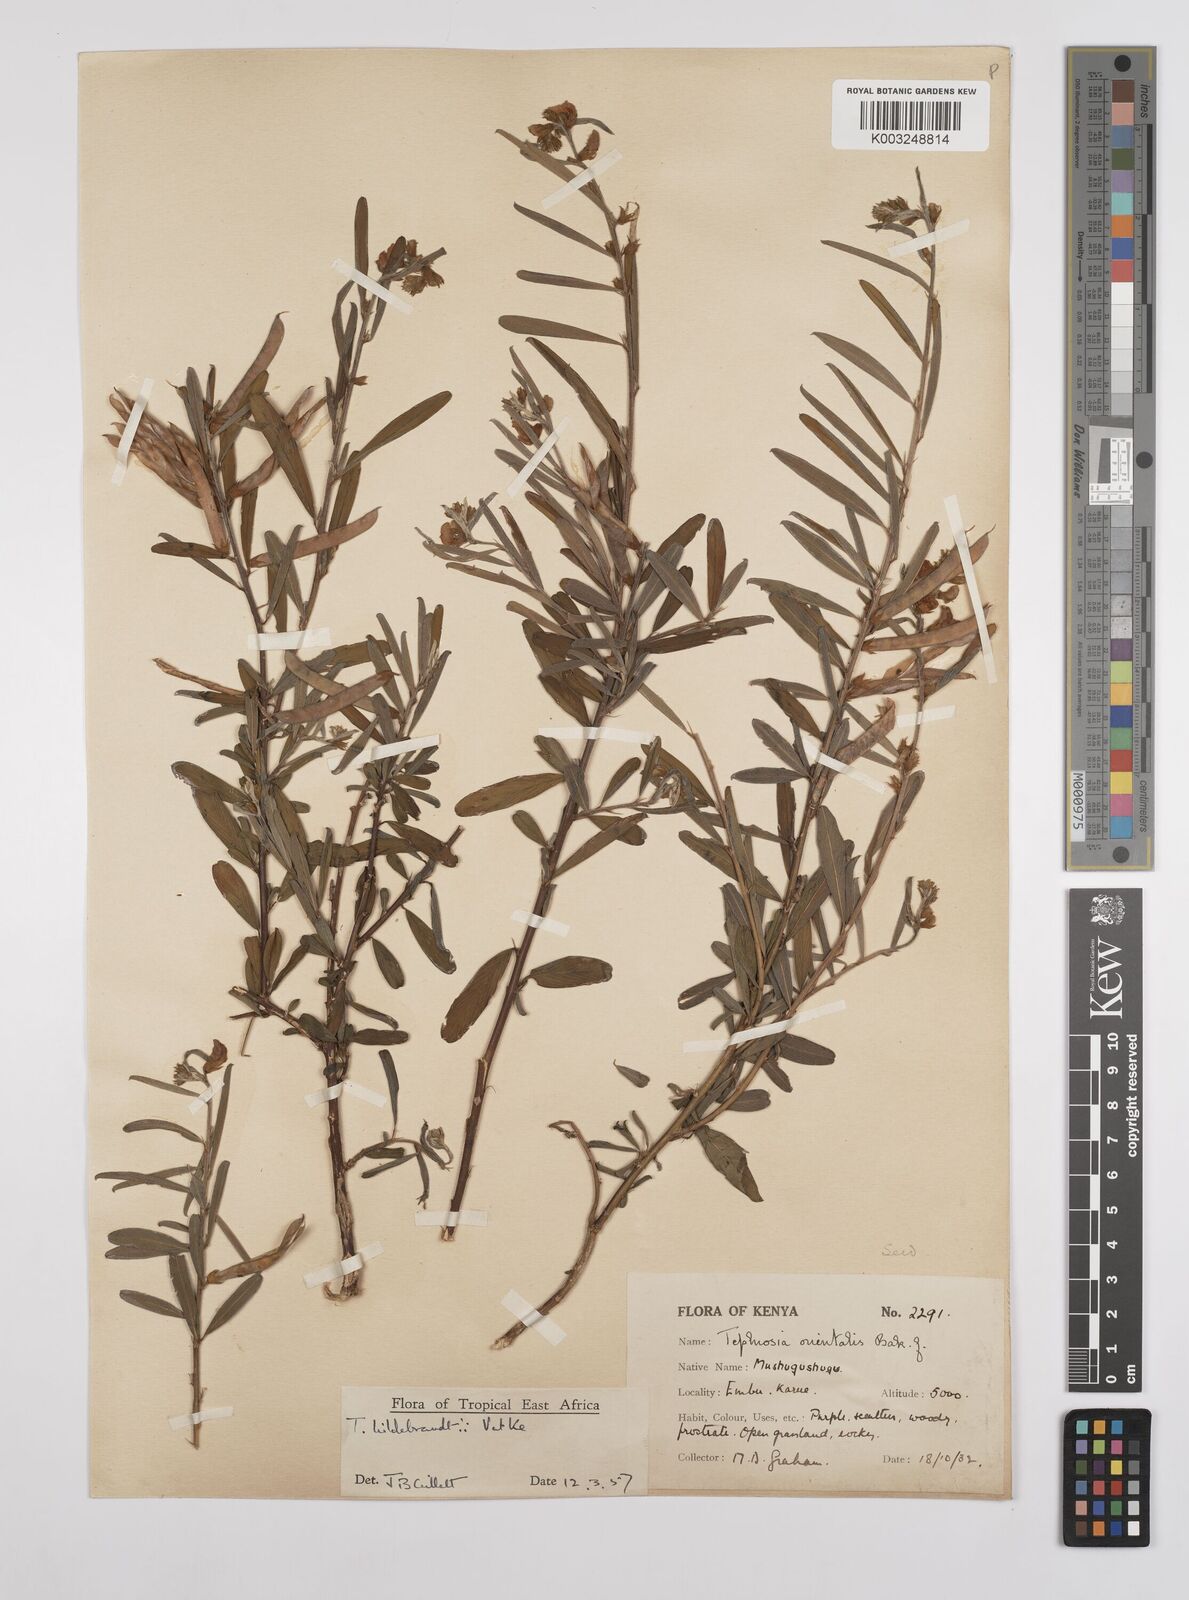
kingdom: Plantae
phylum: Tracheophyta
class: Magnoliopsida
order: Fabales
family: Fabaceae
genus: Tephrosia
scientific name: Tephrosia hildebrandtii
